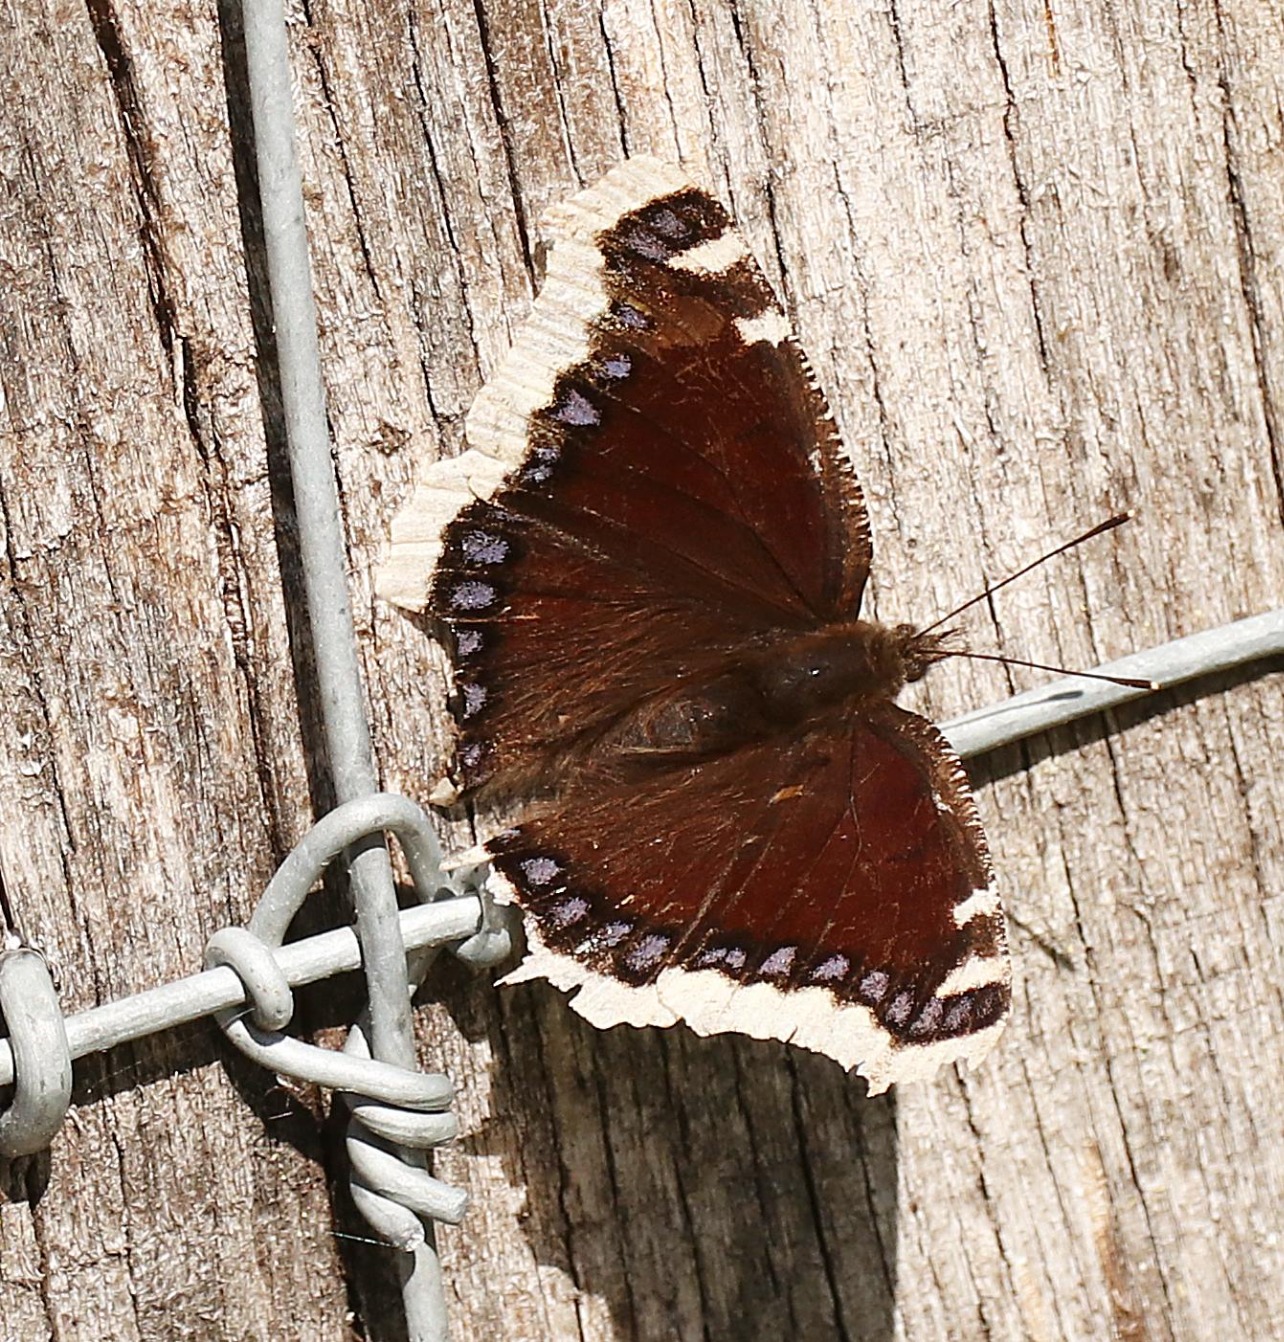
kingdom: Animalia
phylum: Arthropoda
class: Insecta
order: Lepidoptera
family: Nymphalidae
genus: Nymphalis
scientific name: Nymphalis antiopa
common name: Sørgekåbe
